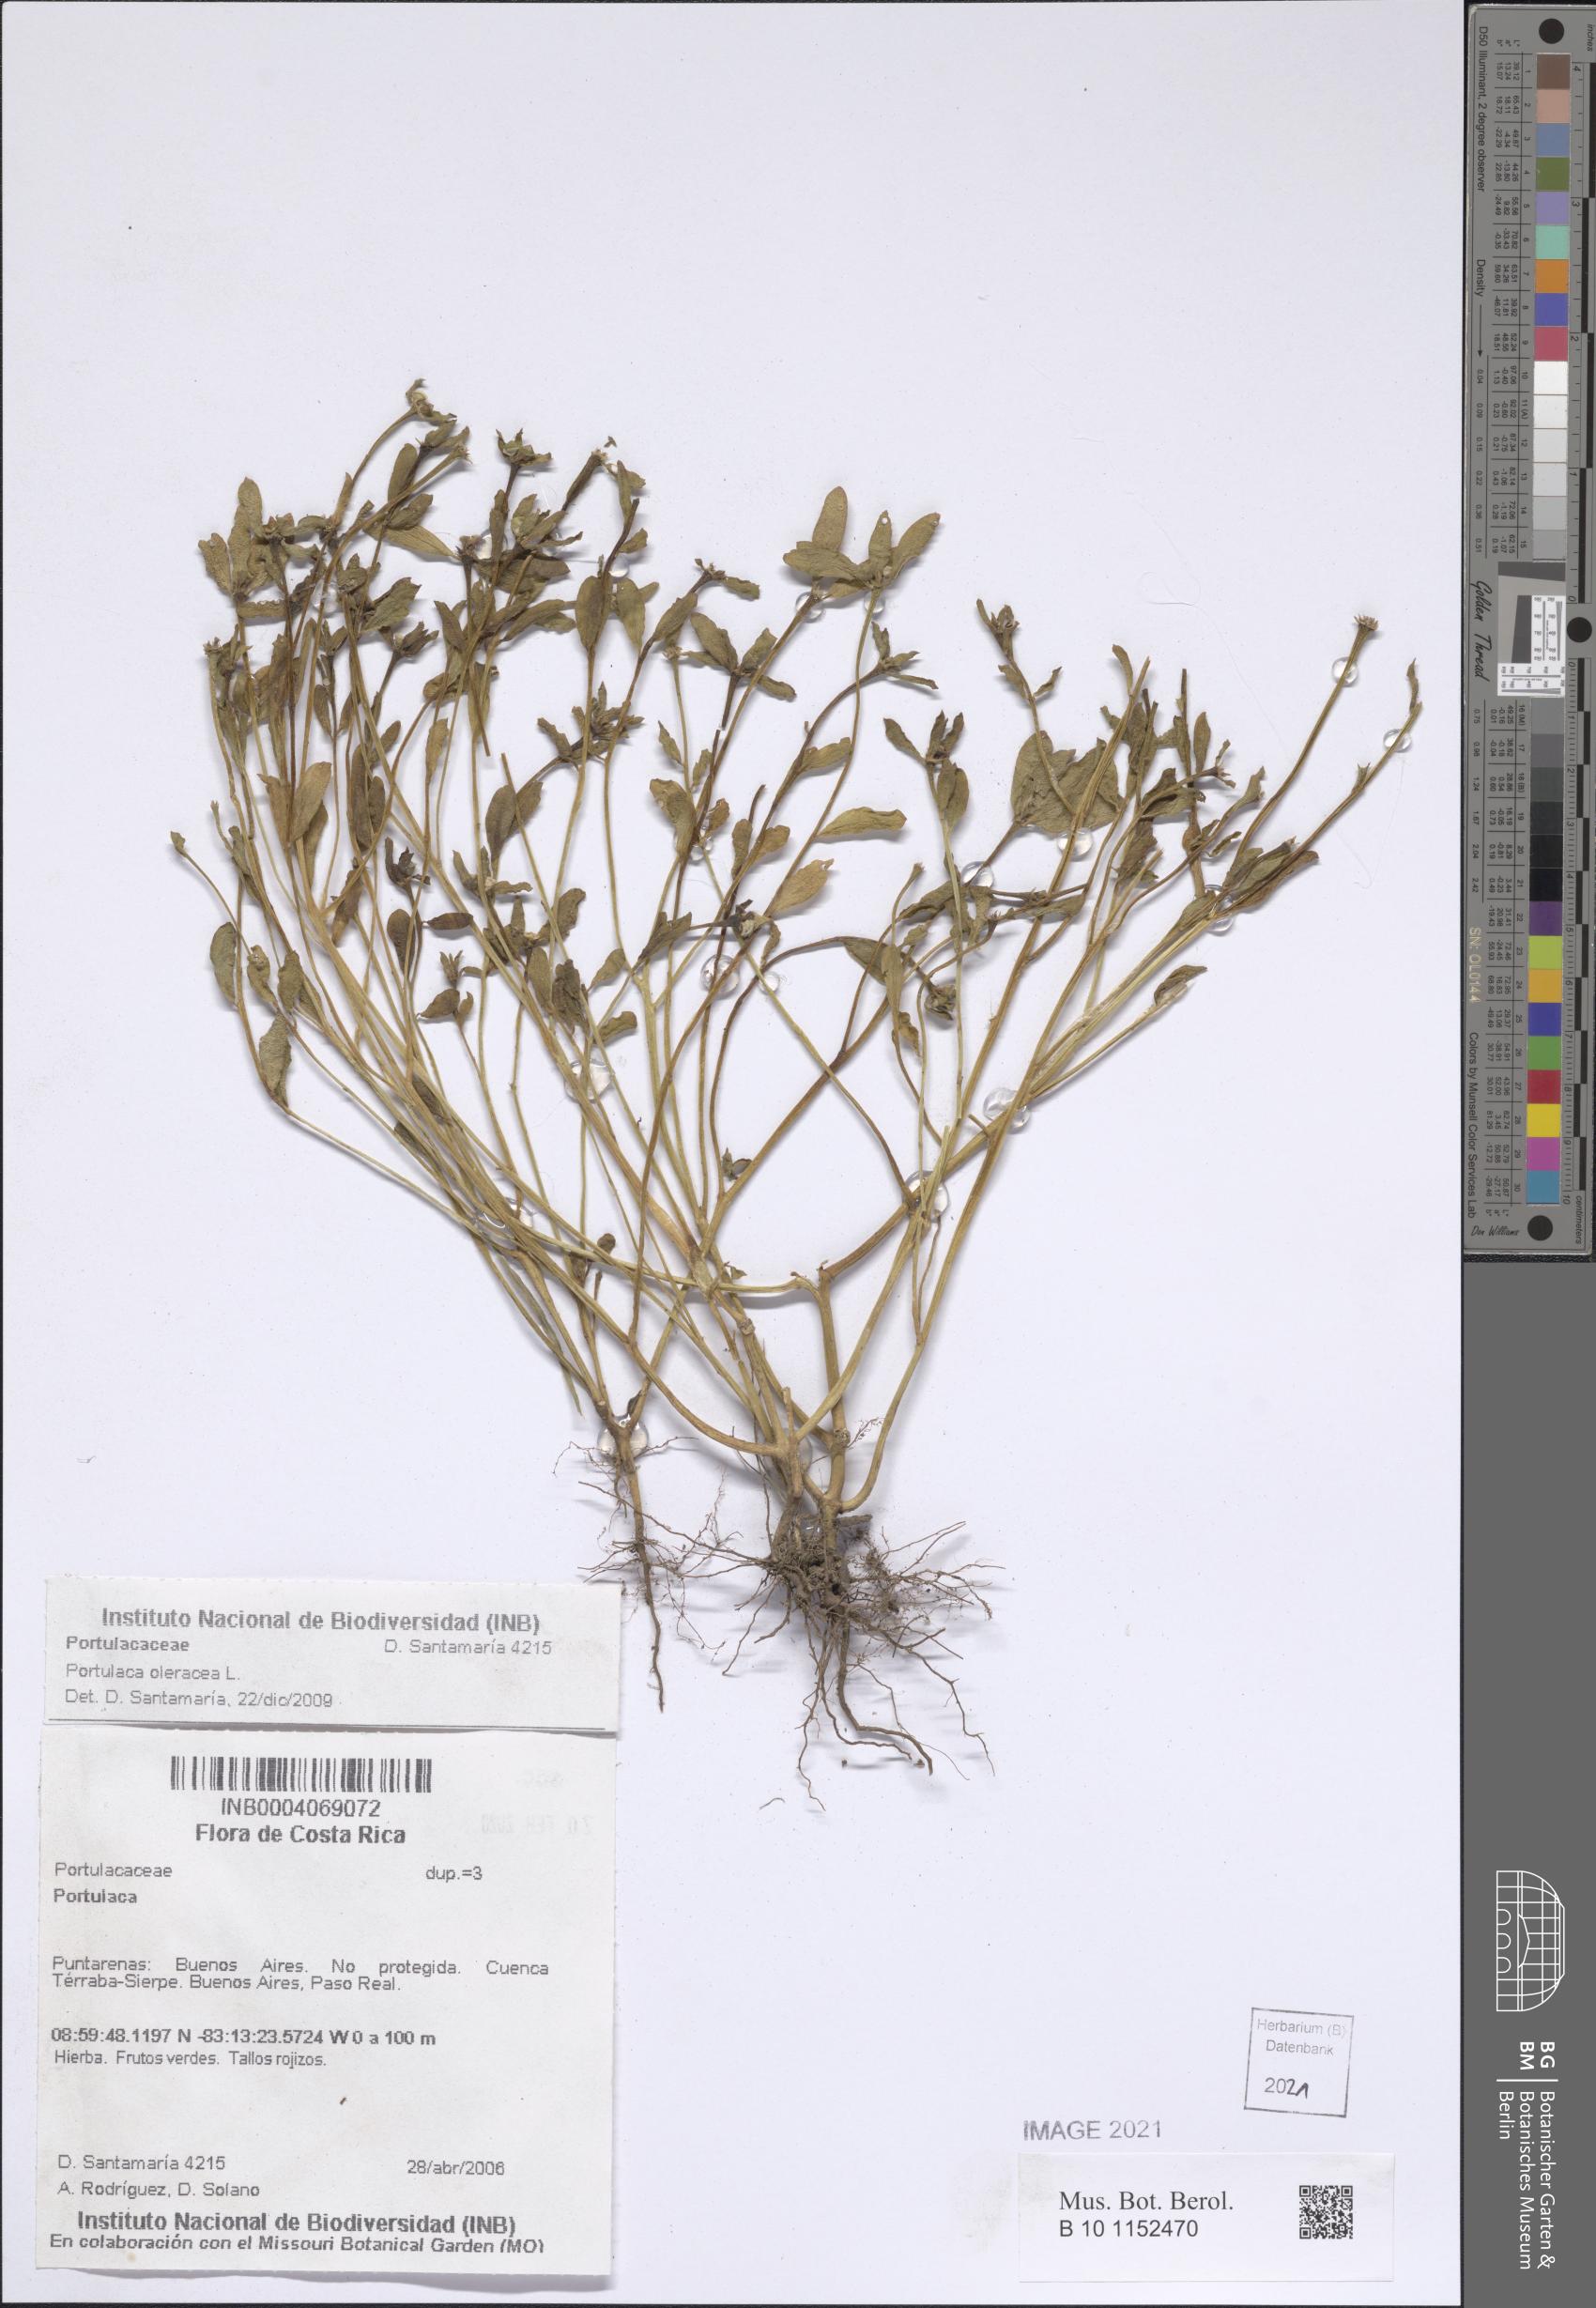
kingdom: Plantae
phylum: Tracheophyta
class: Magnoliopsida
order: Caryophyllales
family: Portulacaceae
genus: Portulaca
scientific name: Portulaca oleracea
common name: Common purslane
